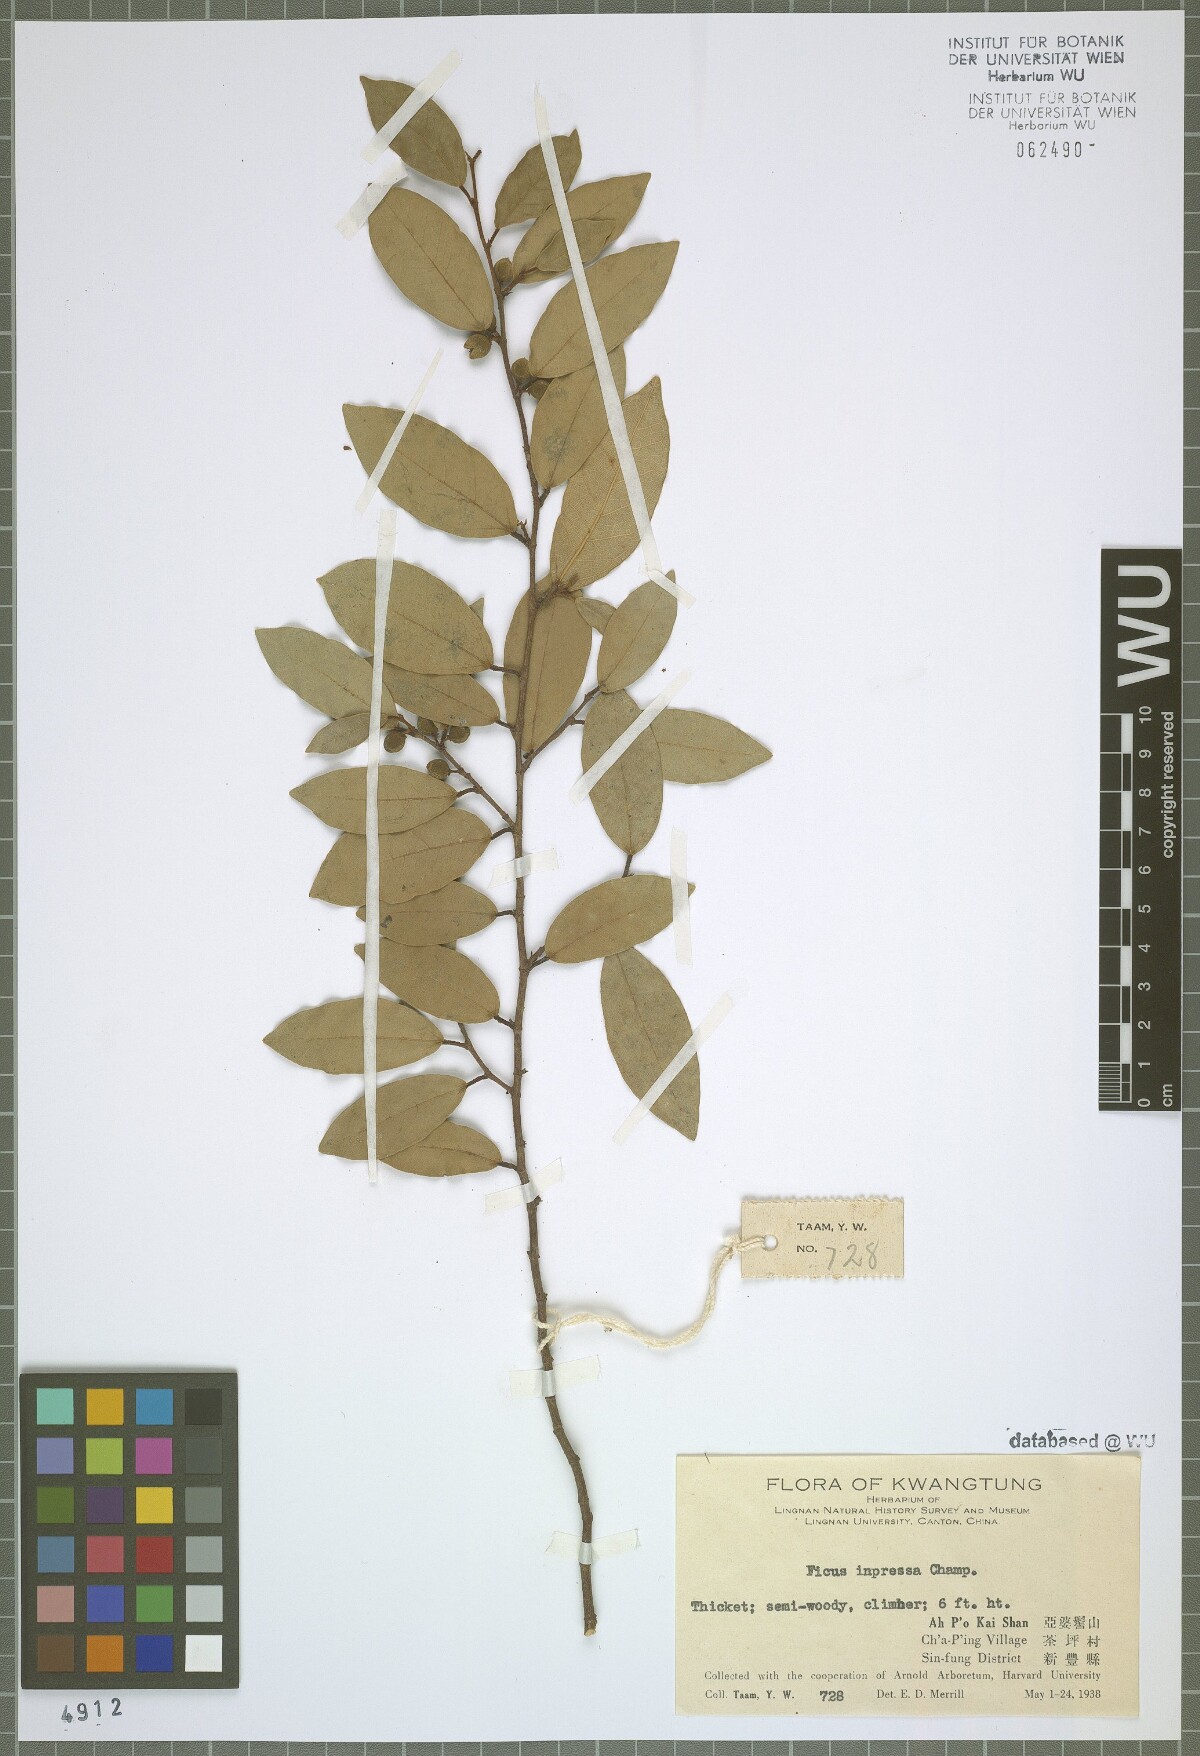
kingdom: Plantae
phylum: Tracheophyta
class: Magnoliopsida
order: Rosales
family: Moraceae
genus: Ficus
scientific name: Ficus sarmentosa
